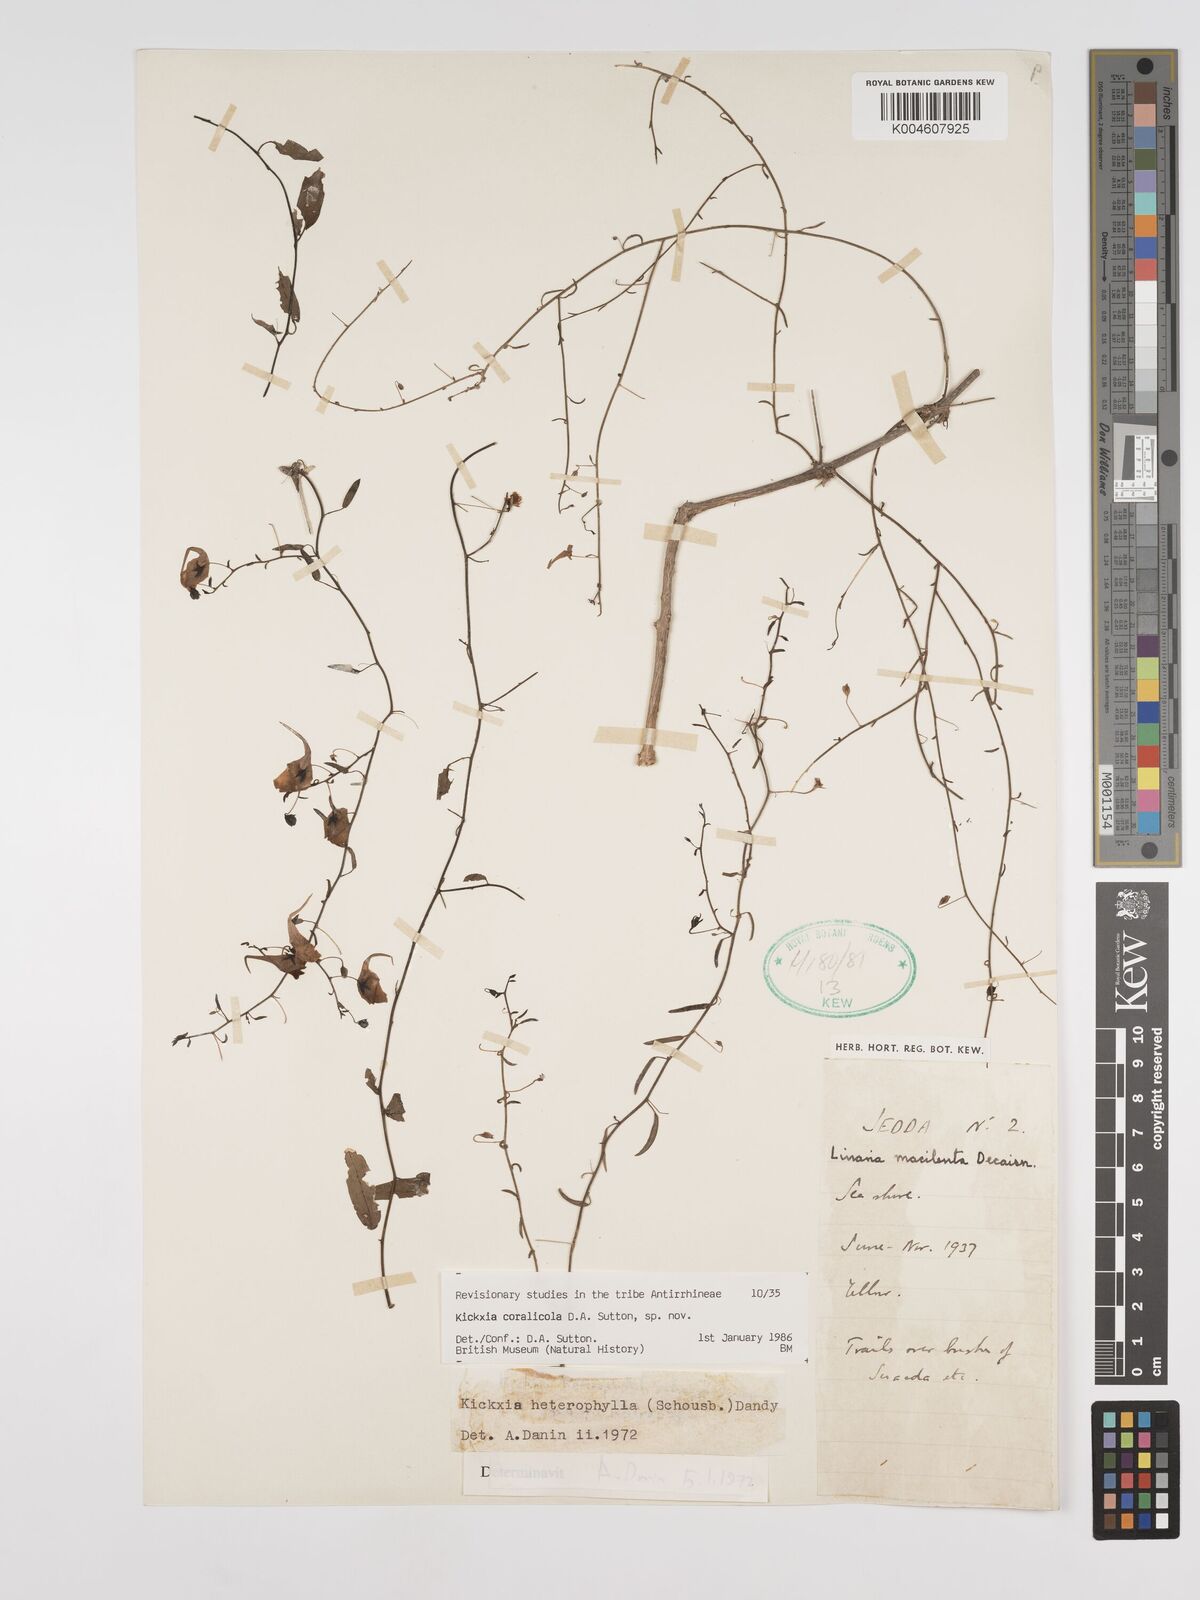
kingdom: Plantae
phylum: Tracheophyta
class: Magnoliopsida
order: Lamiales
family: Plantaginaceae
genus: Kickxia
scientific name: Kickxia corallicola
